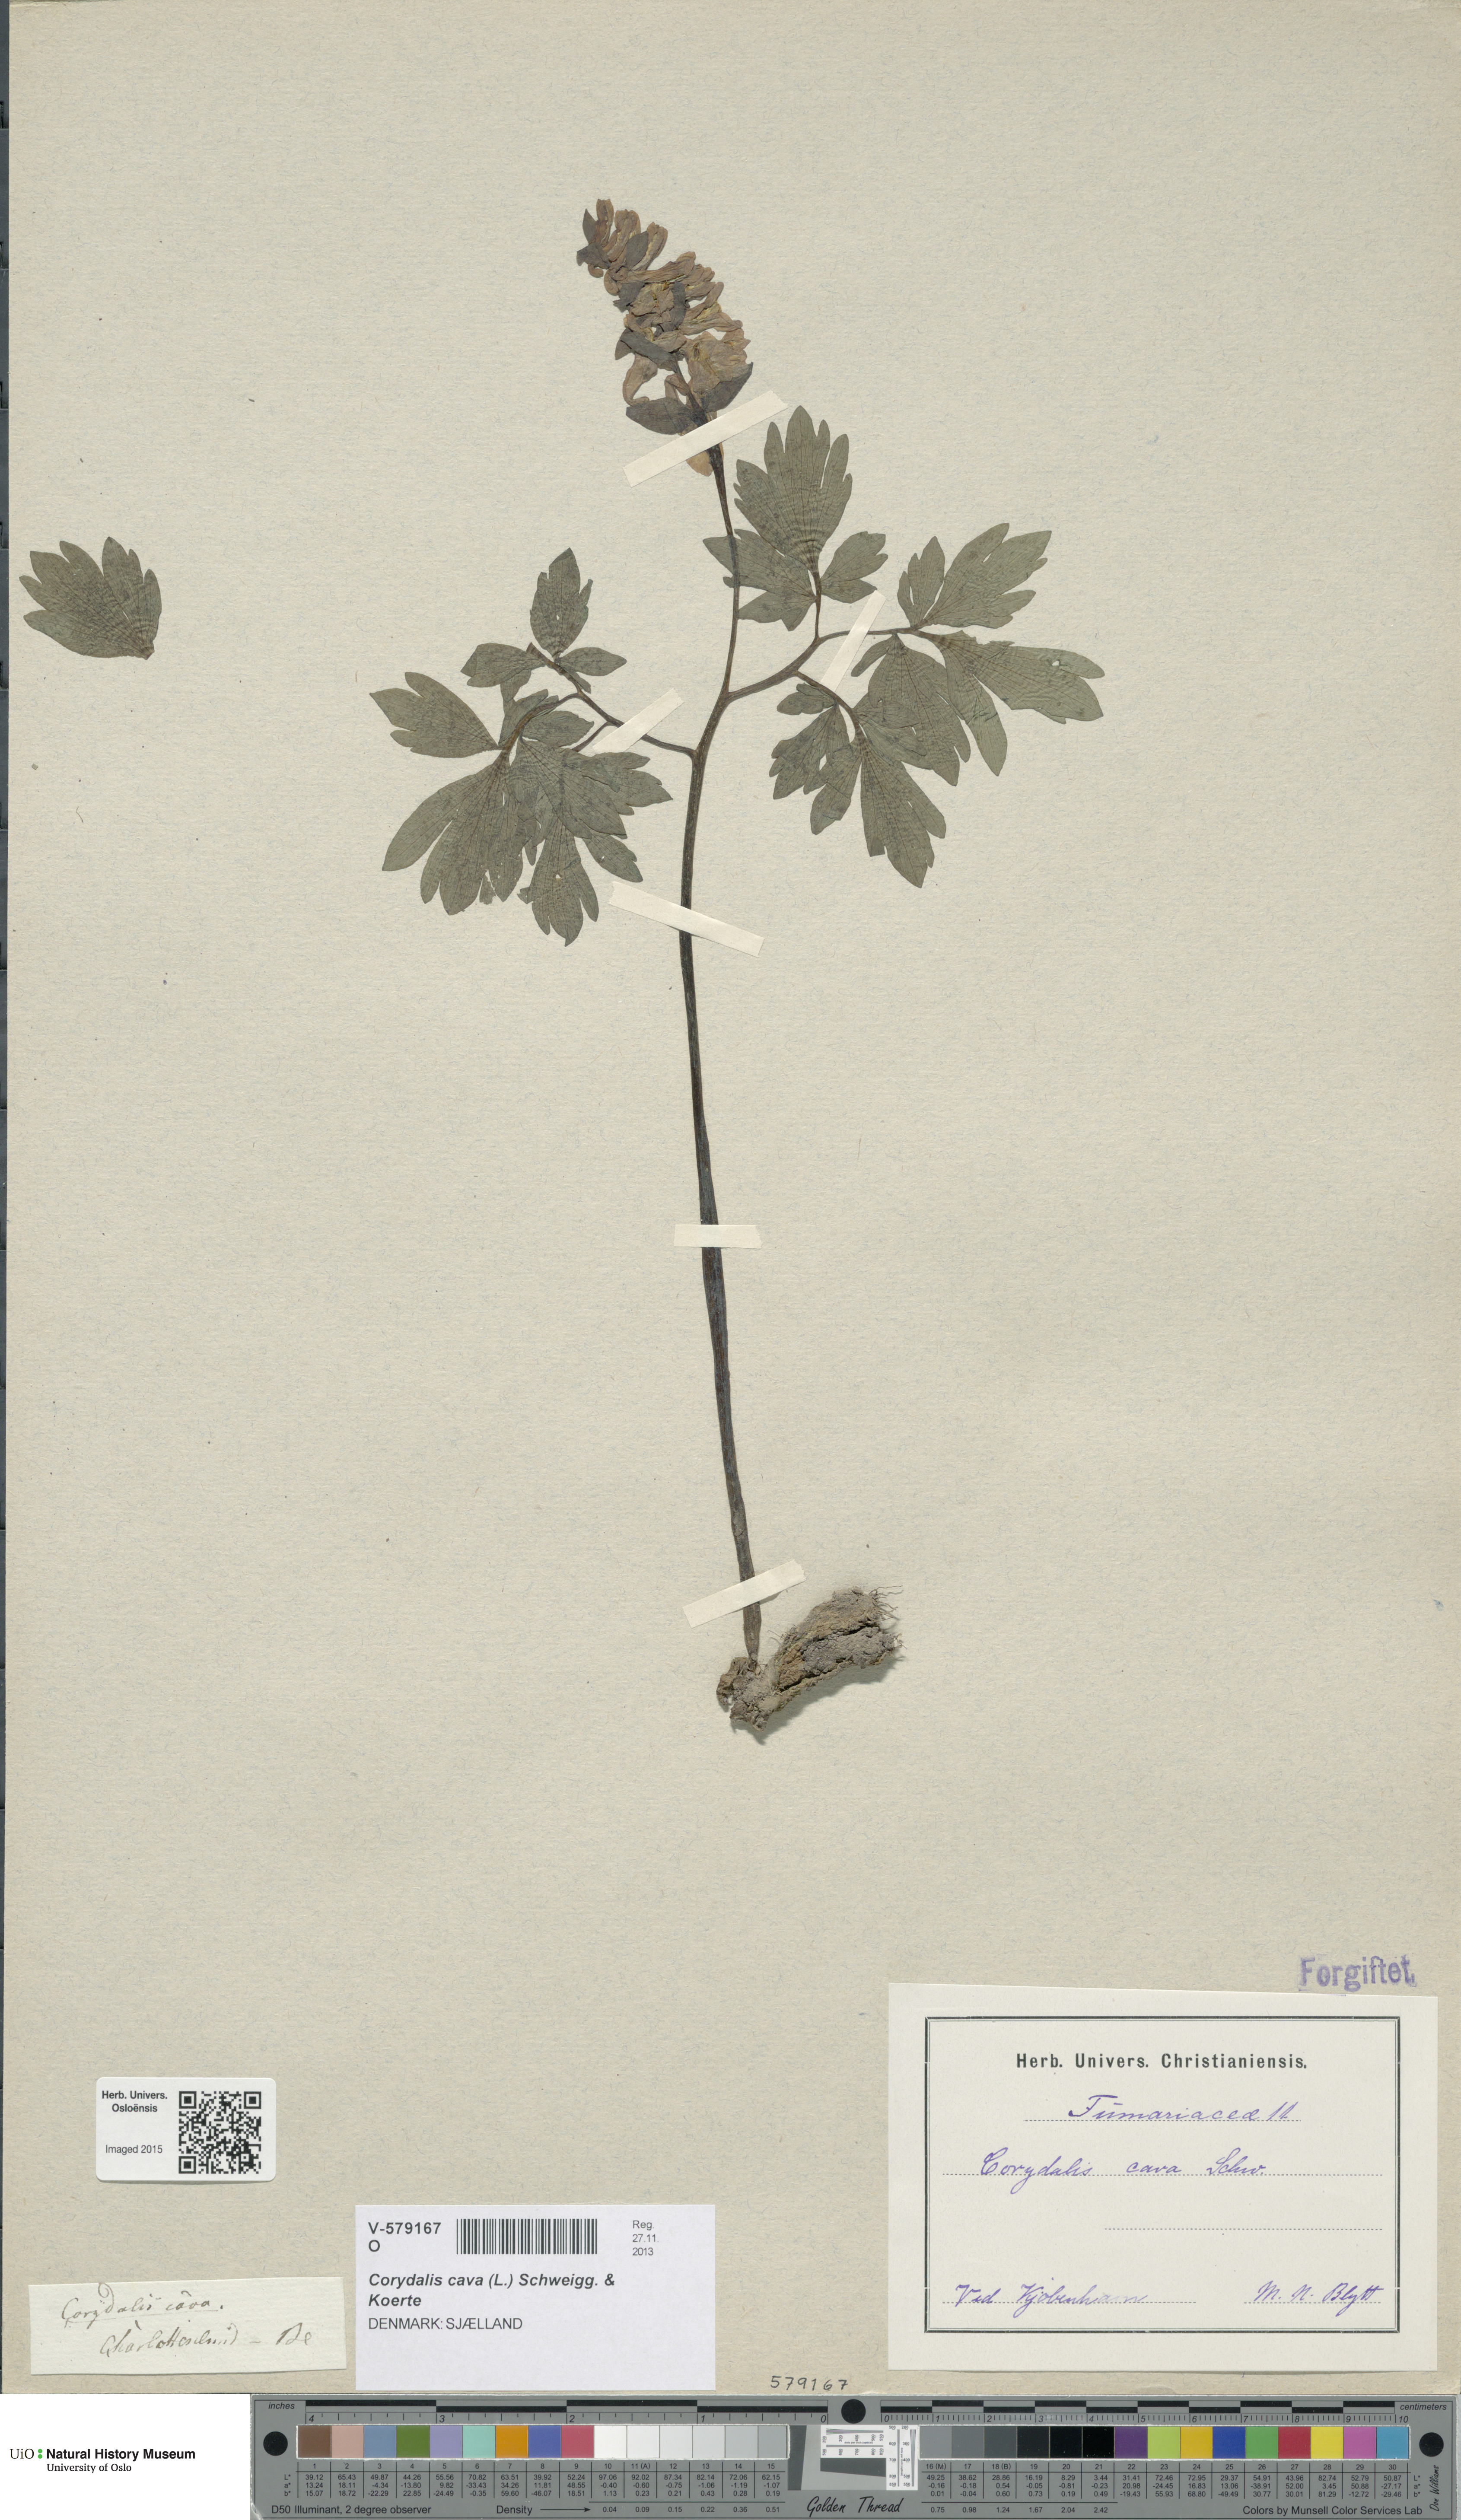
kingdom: Plantae
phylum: Tracheophyta
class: Magnoliopsida
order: Ranunculales
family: Papaveraceae
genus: Corydalis
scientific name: Corydalis cava
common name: Hollowroot
